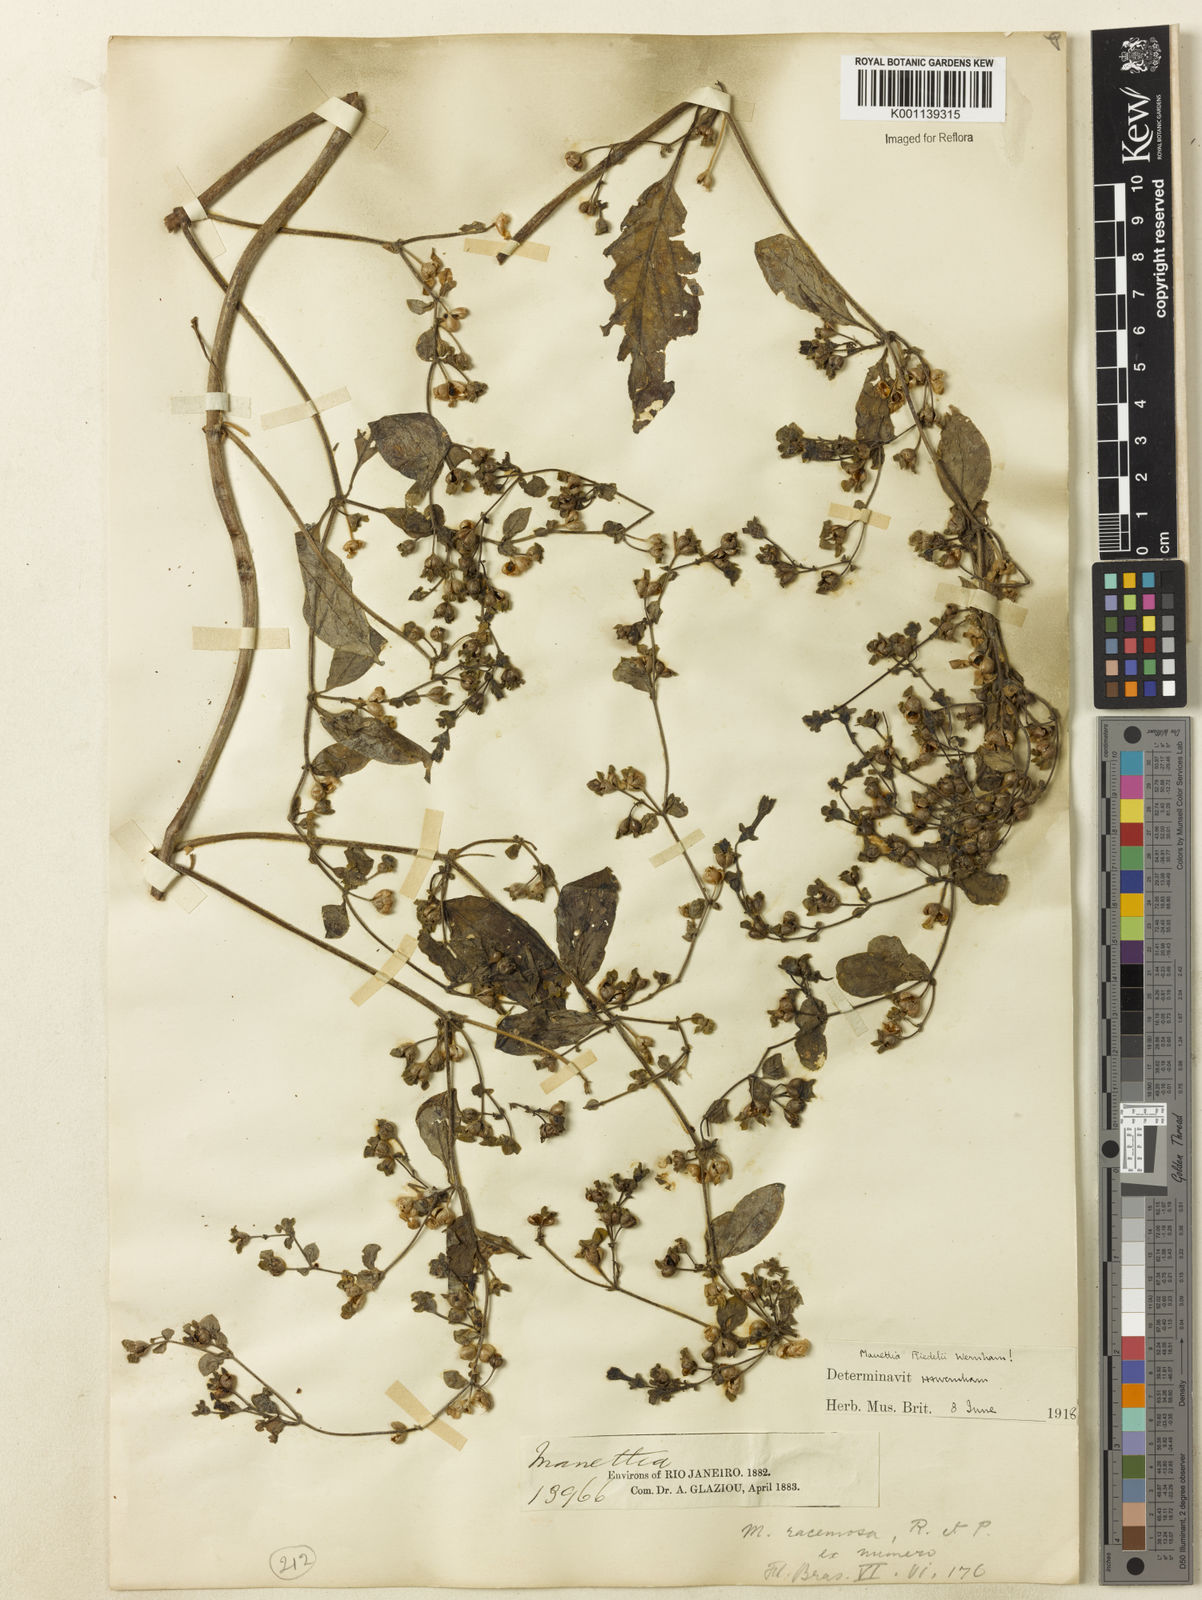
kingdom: Plantae
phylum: Tracheophyta
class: Magnoliopsida
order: Gentianales
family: Rubiaceae
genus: Manettia
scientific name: Manettia riedelii
